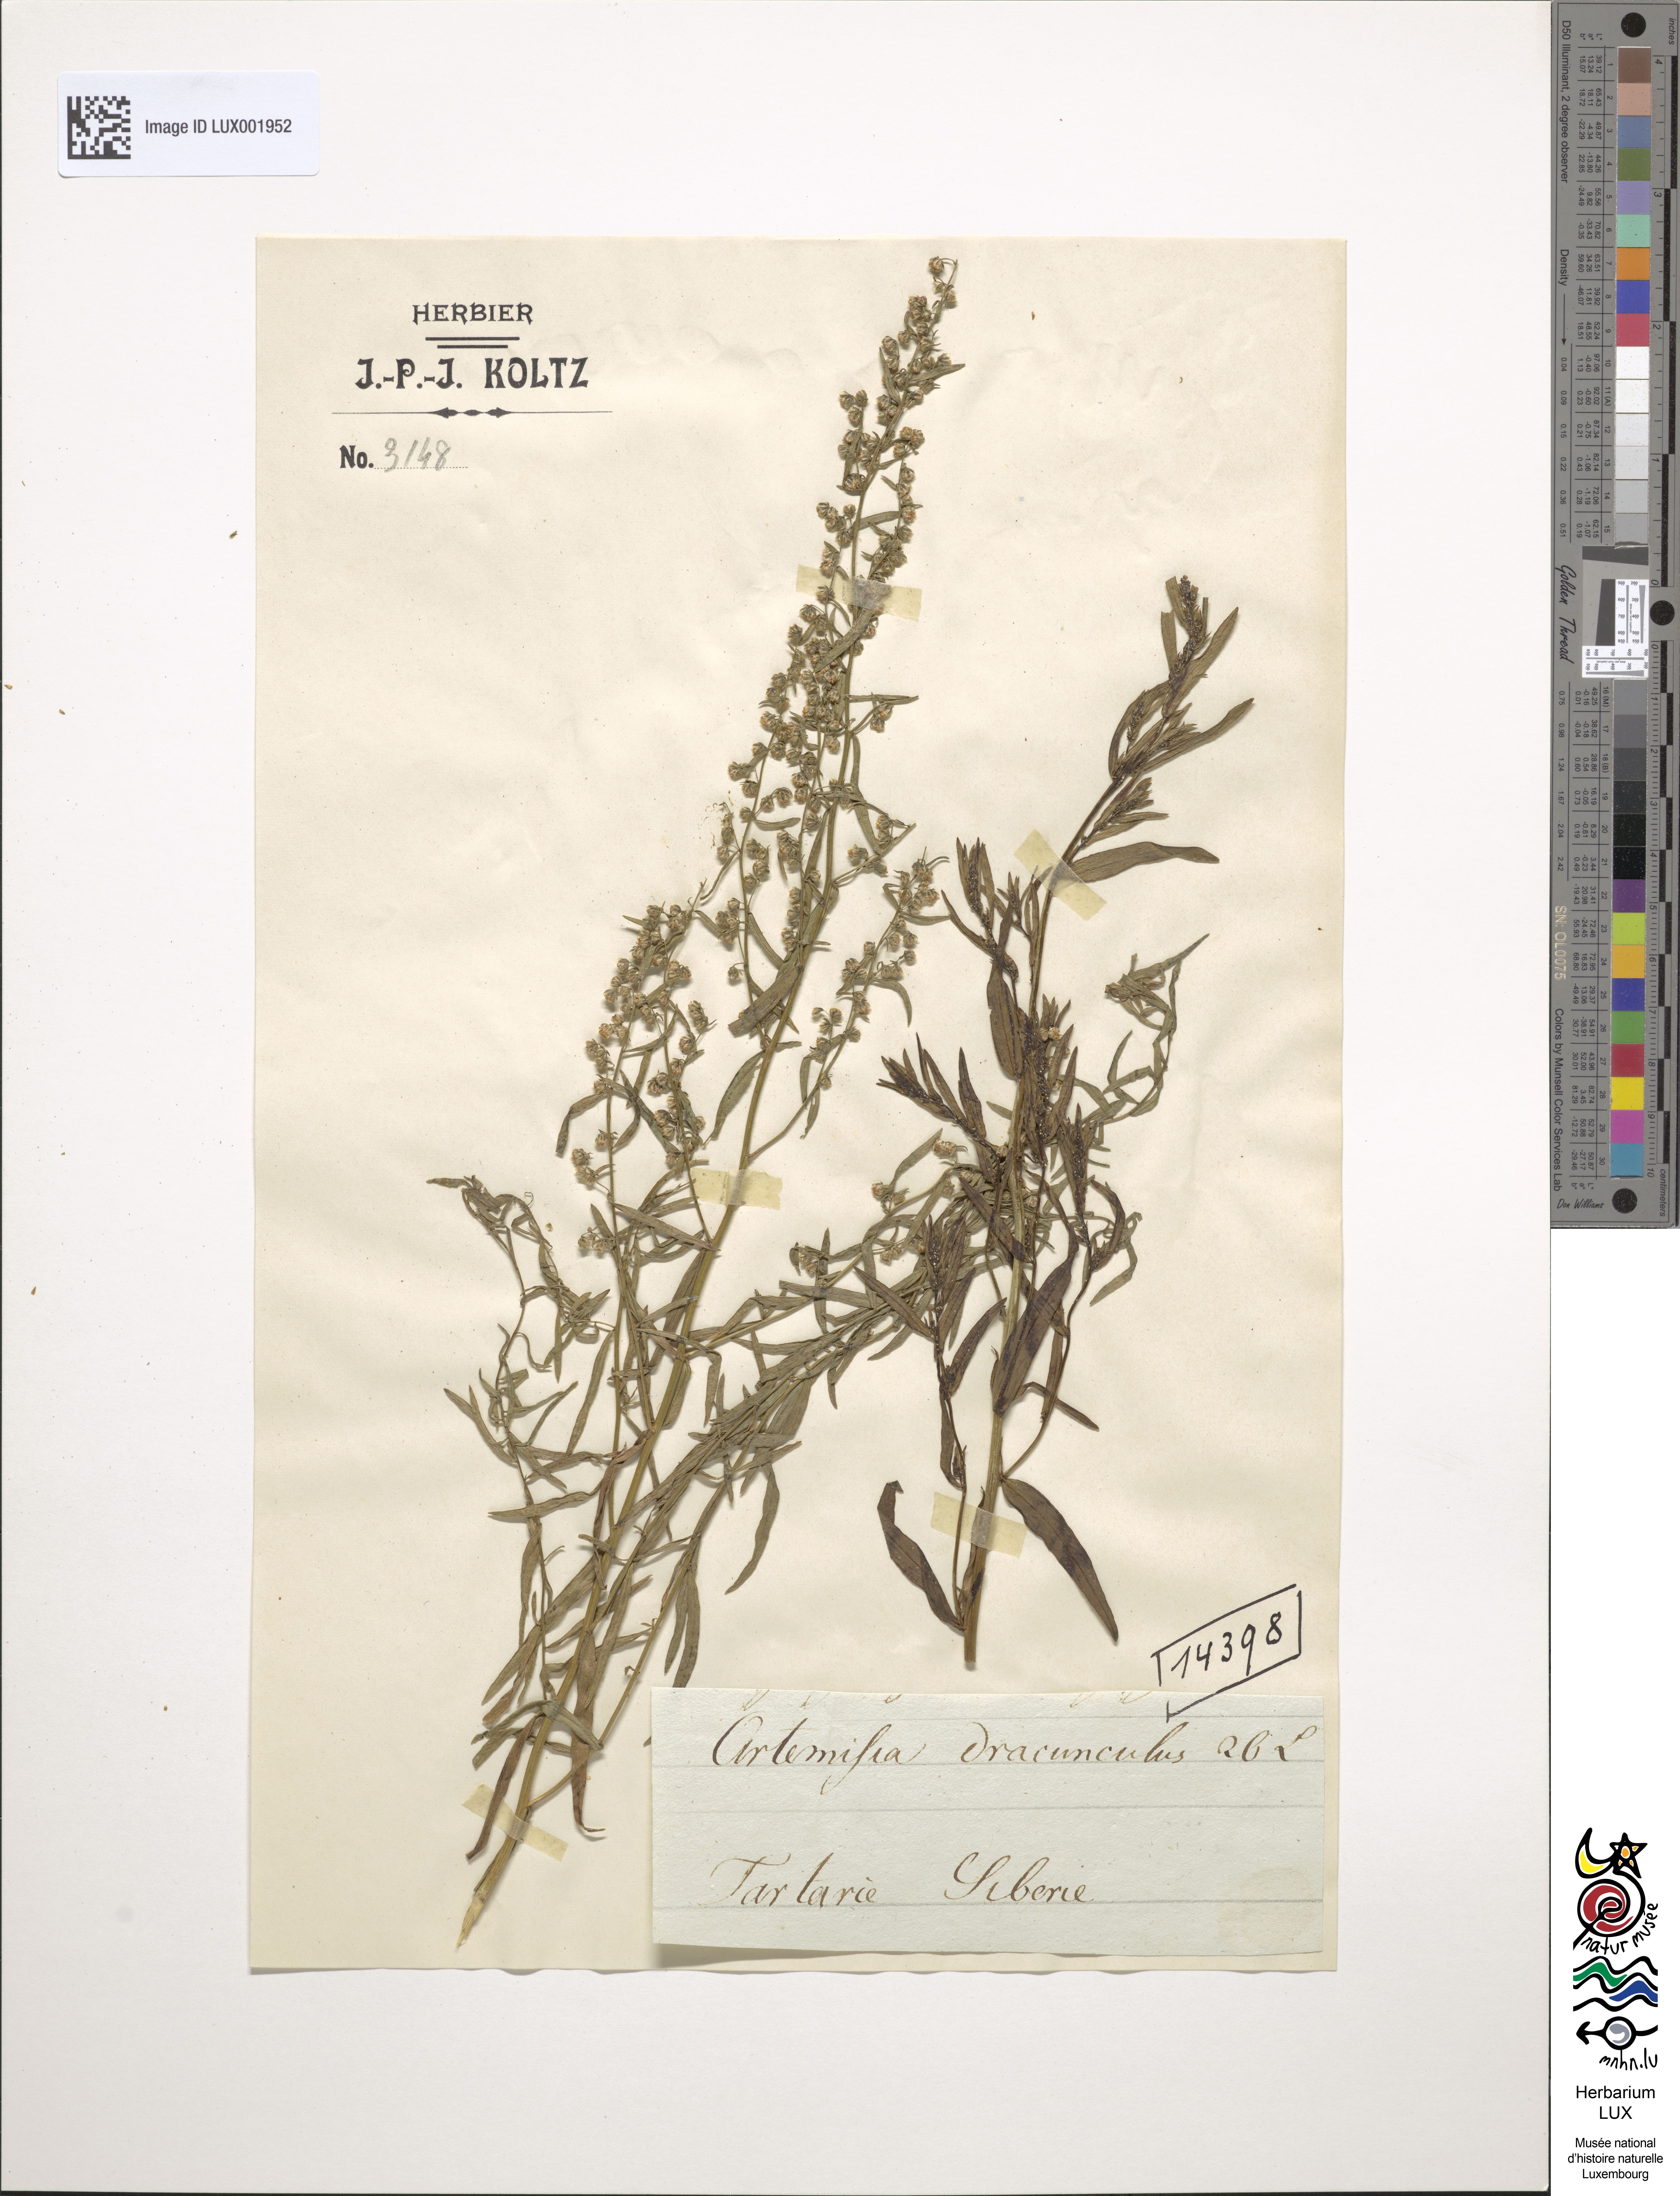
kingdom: Plantae
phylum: Tracheophyta
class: Magnoliopsida
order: Asterales
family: Asteraceae
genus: Artemisia
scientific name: Artemisia dracunculus
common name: Tarragon
